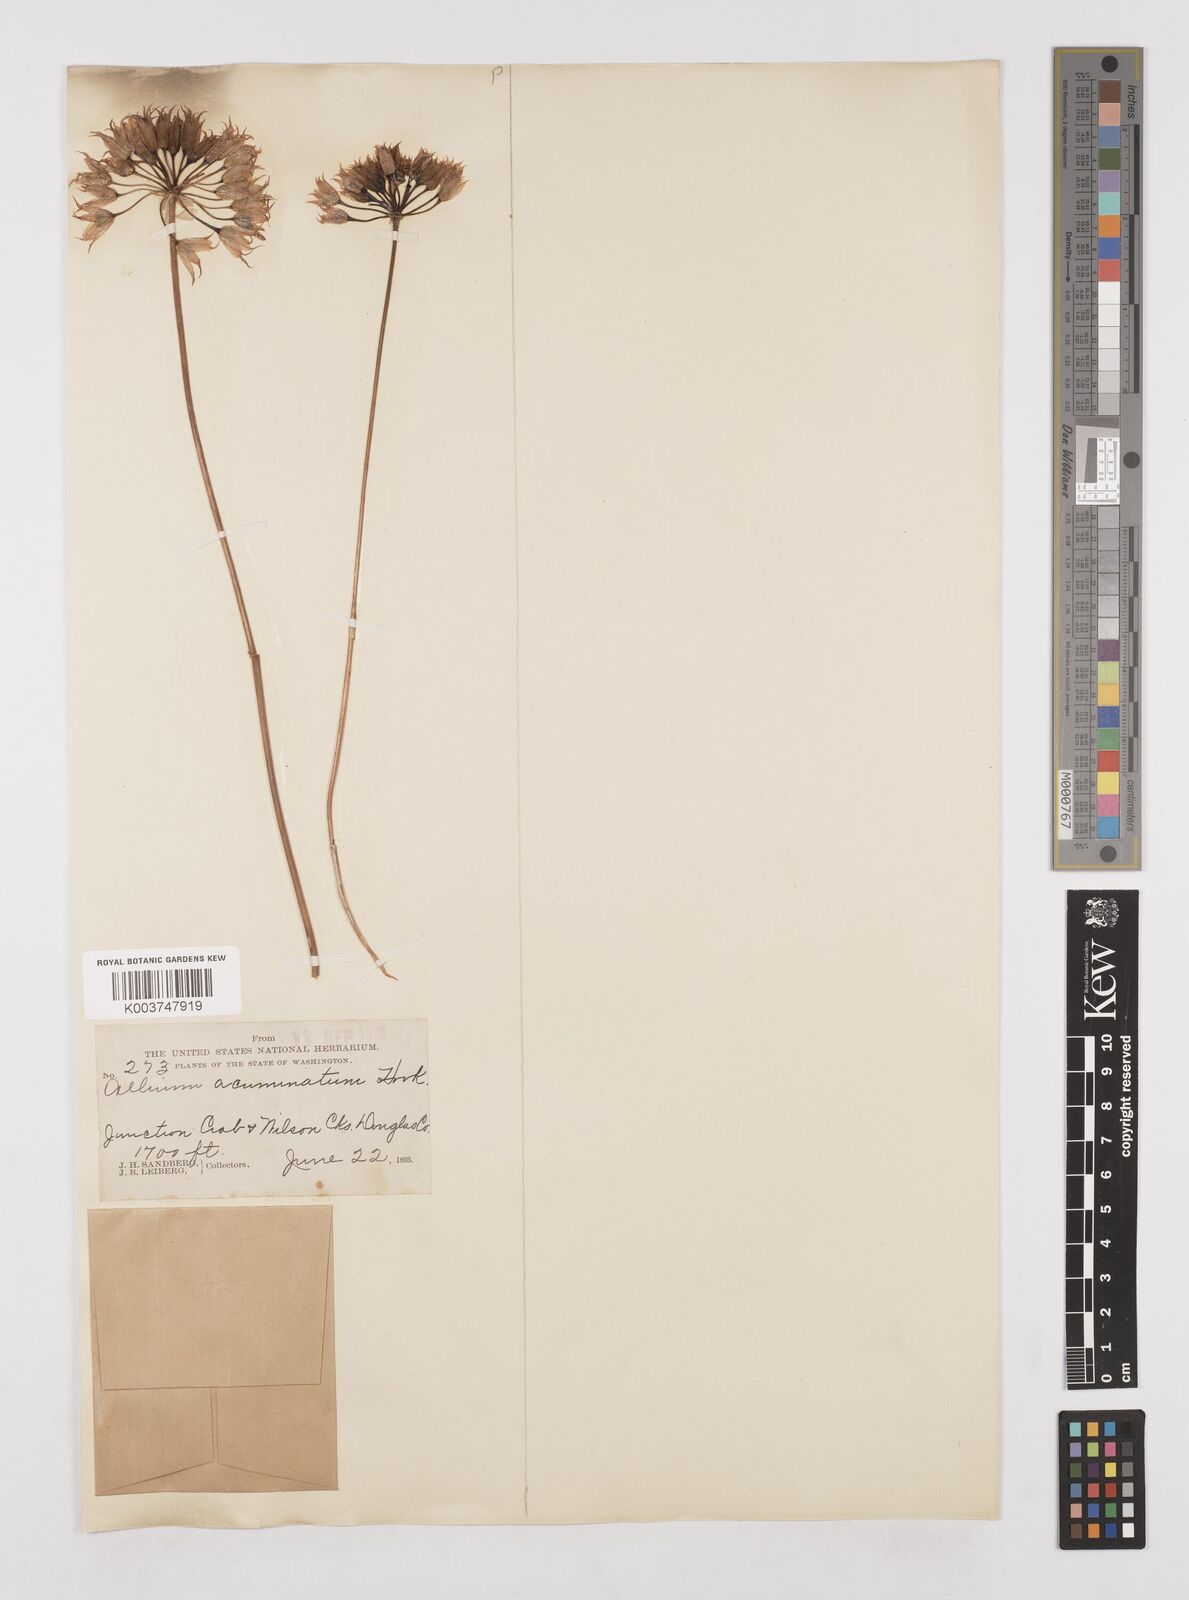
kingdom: Plantae
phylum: Tracheophyta
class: Liliopsida
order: Asparagales
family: Amaryllidaceae
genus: Allium
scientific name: Allium acuminatum
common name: Hooker's onion
